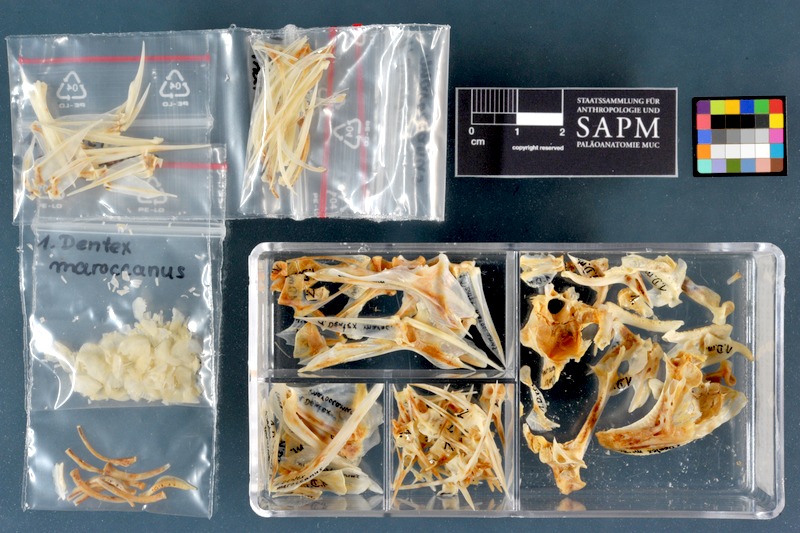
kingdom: Animalia
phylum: Chordata
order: Perciformes
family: Sparidae
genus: Dentex
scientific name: Dentex maroccanus
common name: Morocco dentex
